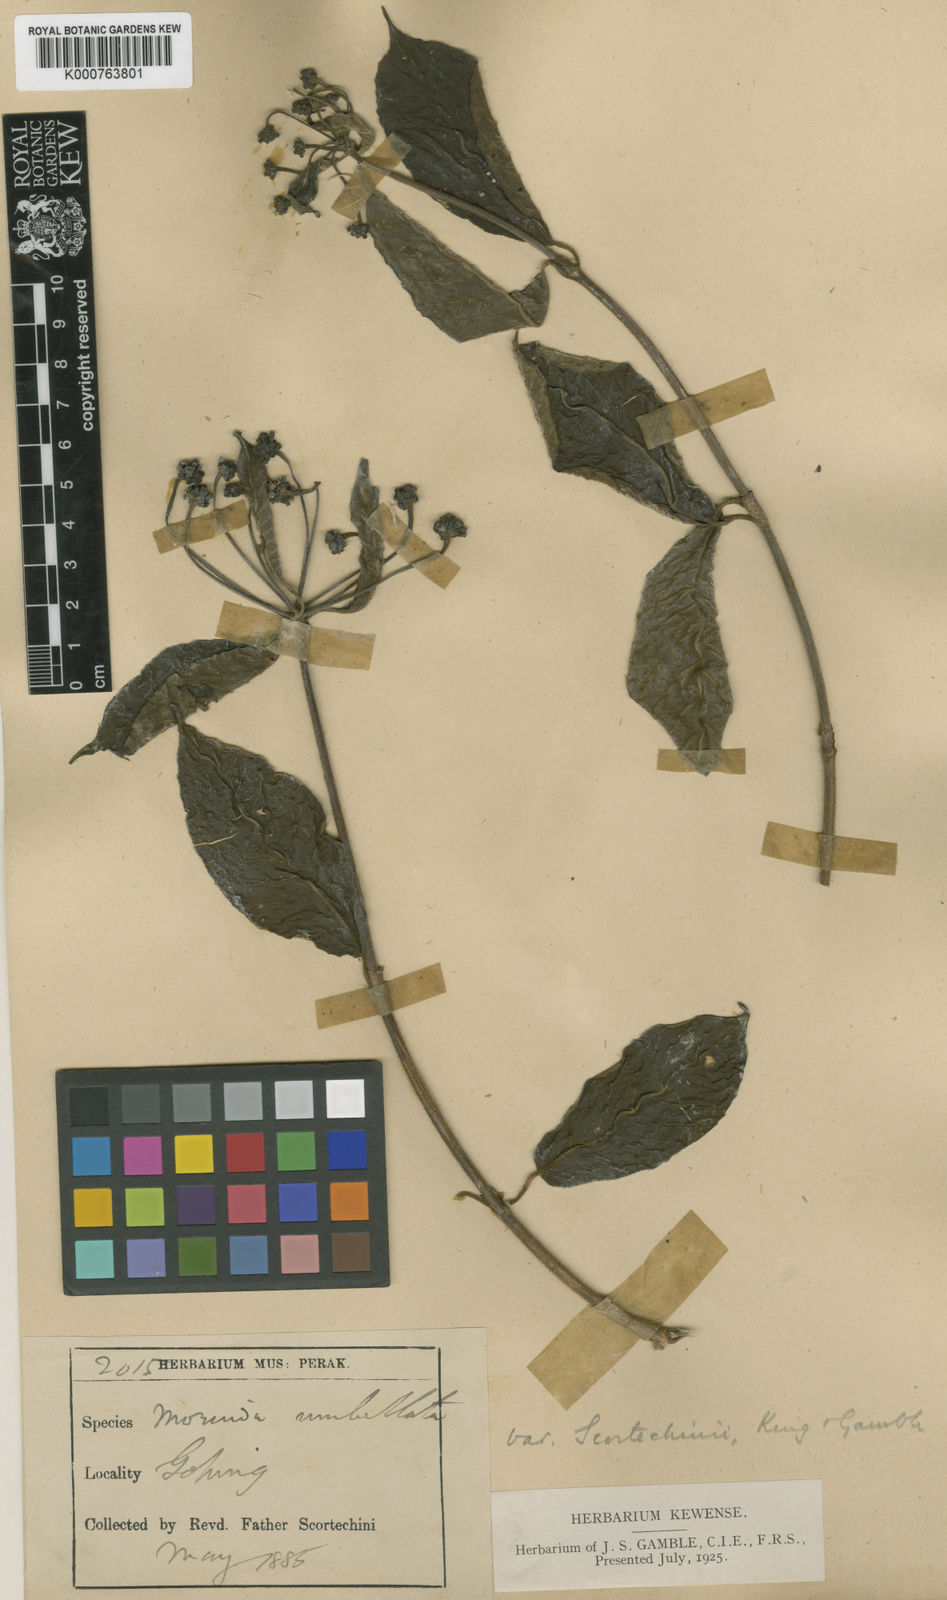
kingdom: Plantae
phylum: Tracheophyta
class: Magnoliopsida
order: Gentianales
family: Rubiaceae
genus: Gynochthodes
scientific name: Gynochthodes umbellata
